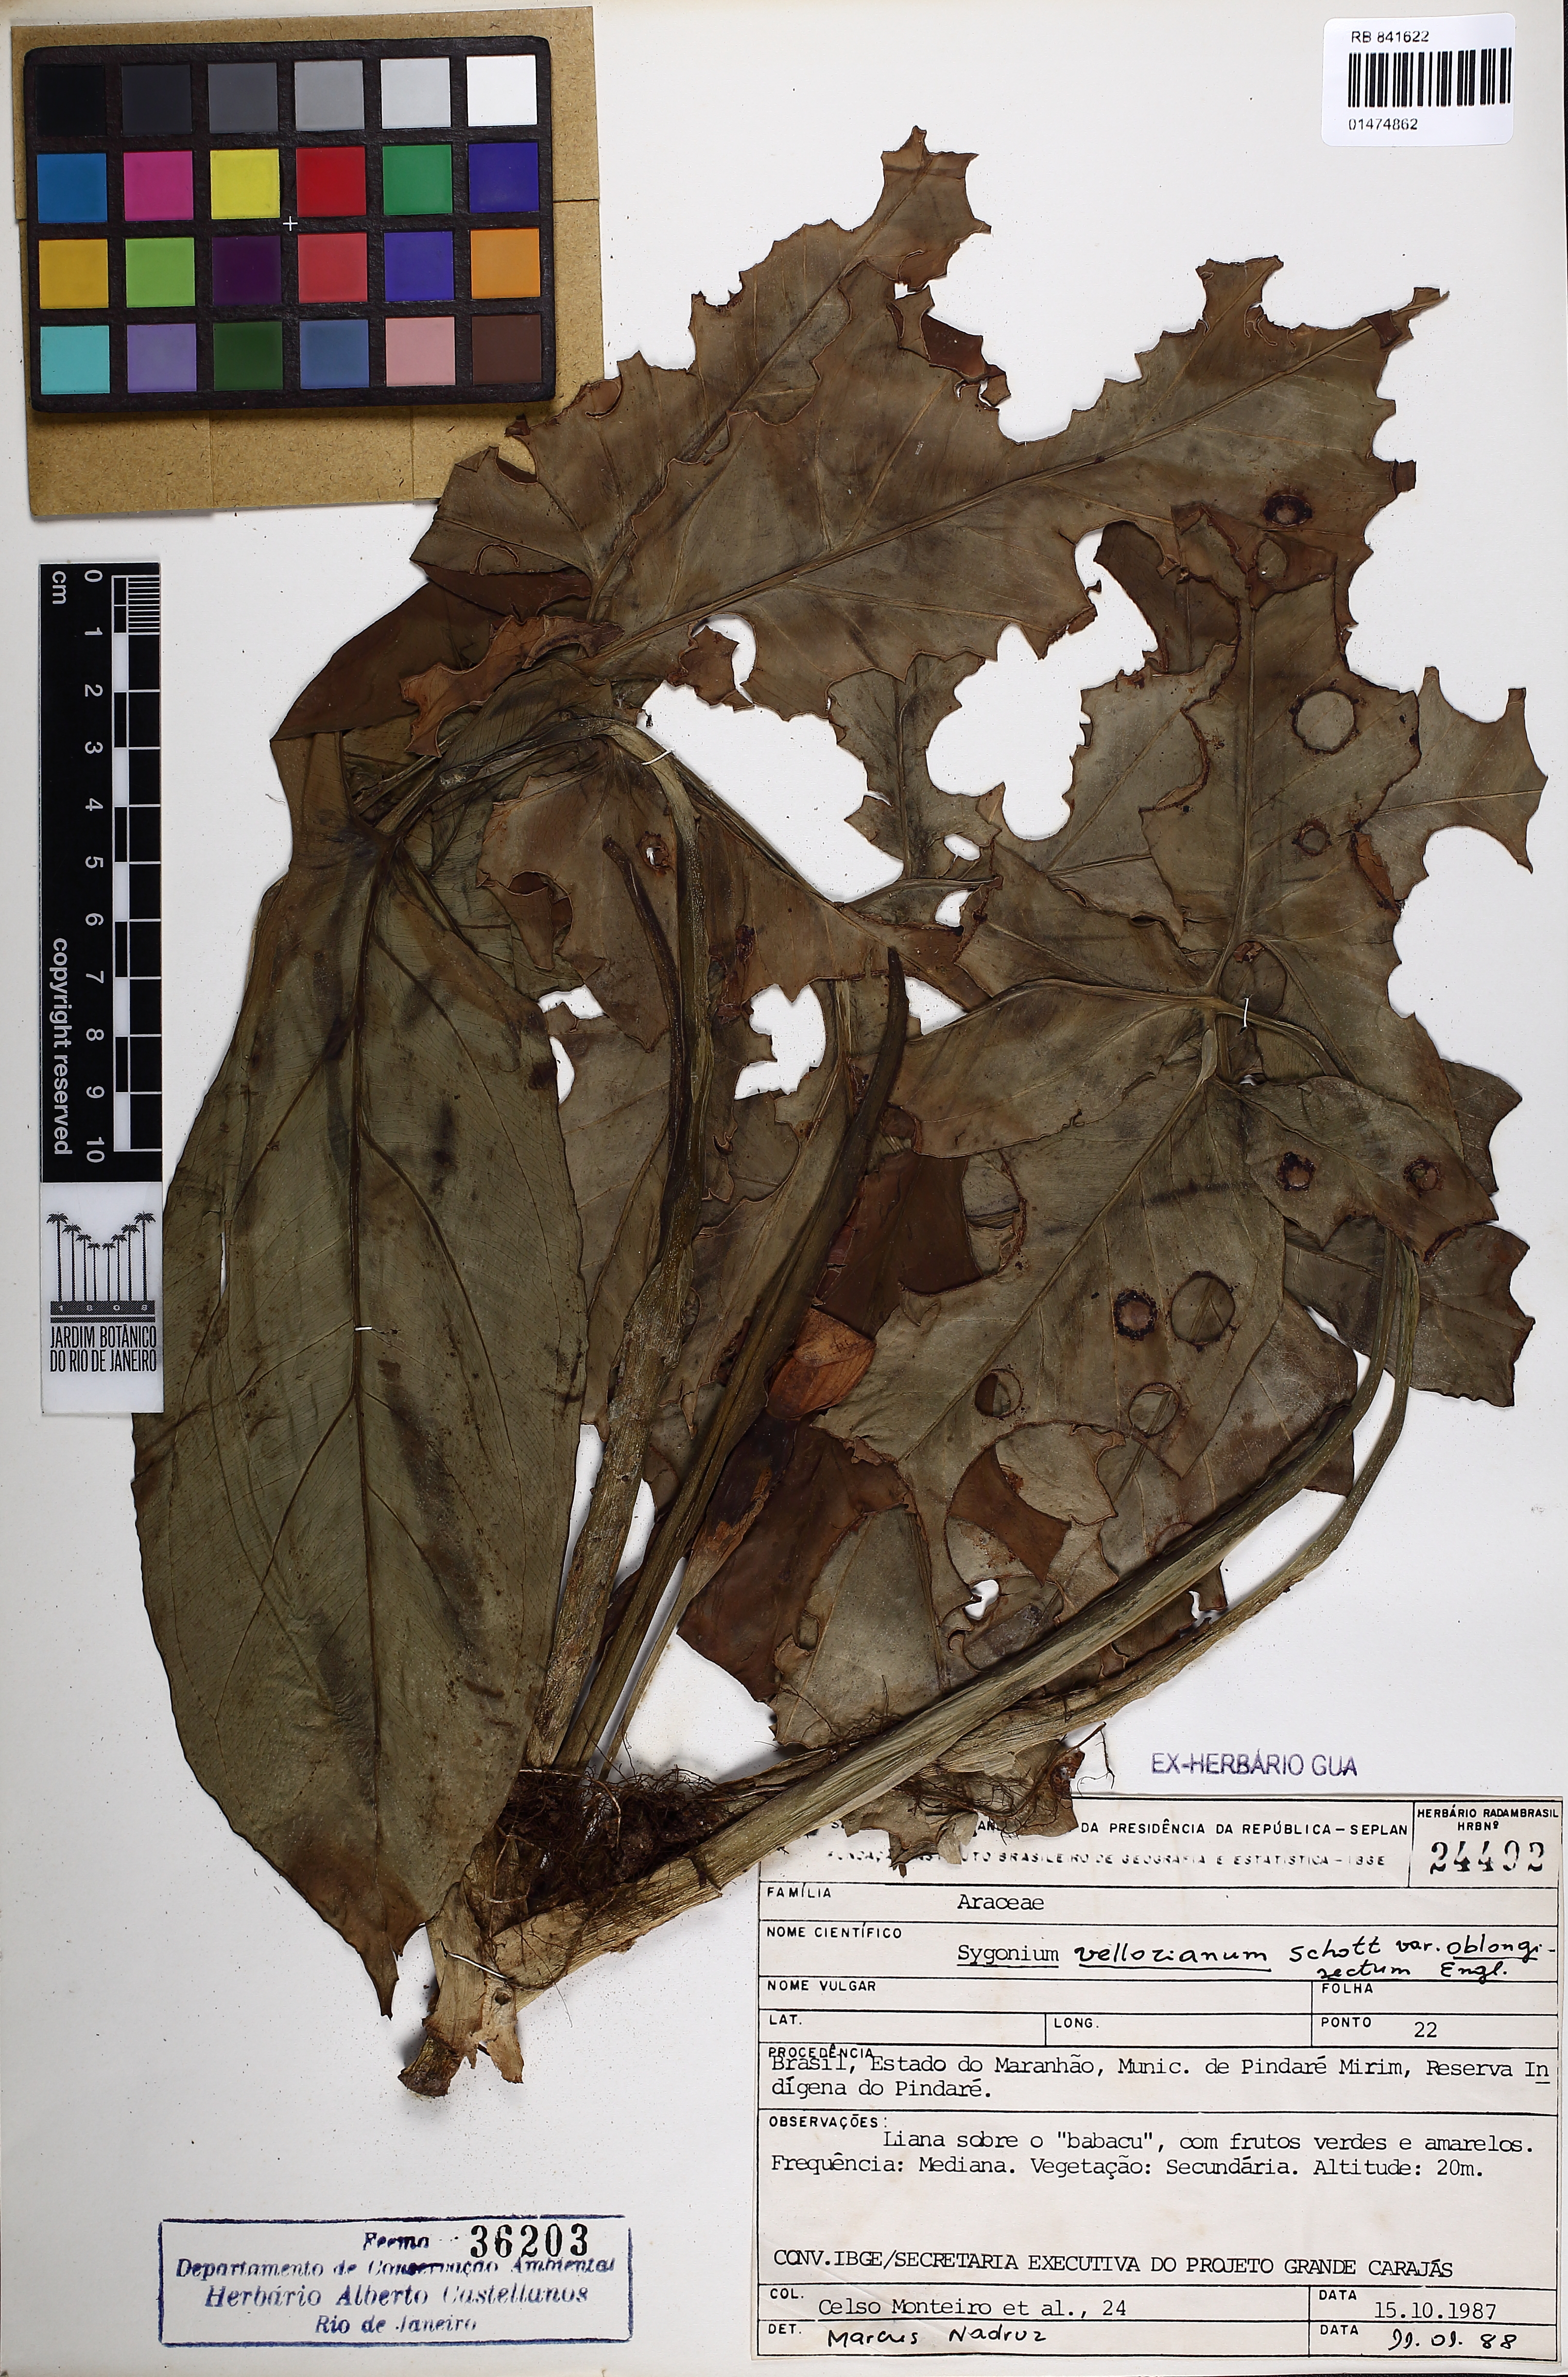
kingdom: Plantae
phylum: Tracheophyta
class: Liliopsida
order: Alismatales
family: Araceae
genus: Syngonium
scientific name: Syngonium podophyllum
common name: American evergreen
